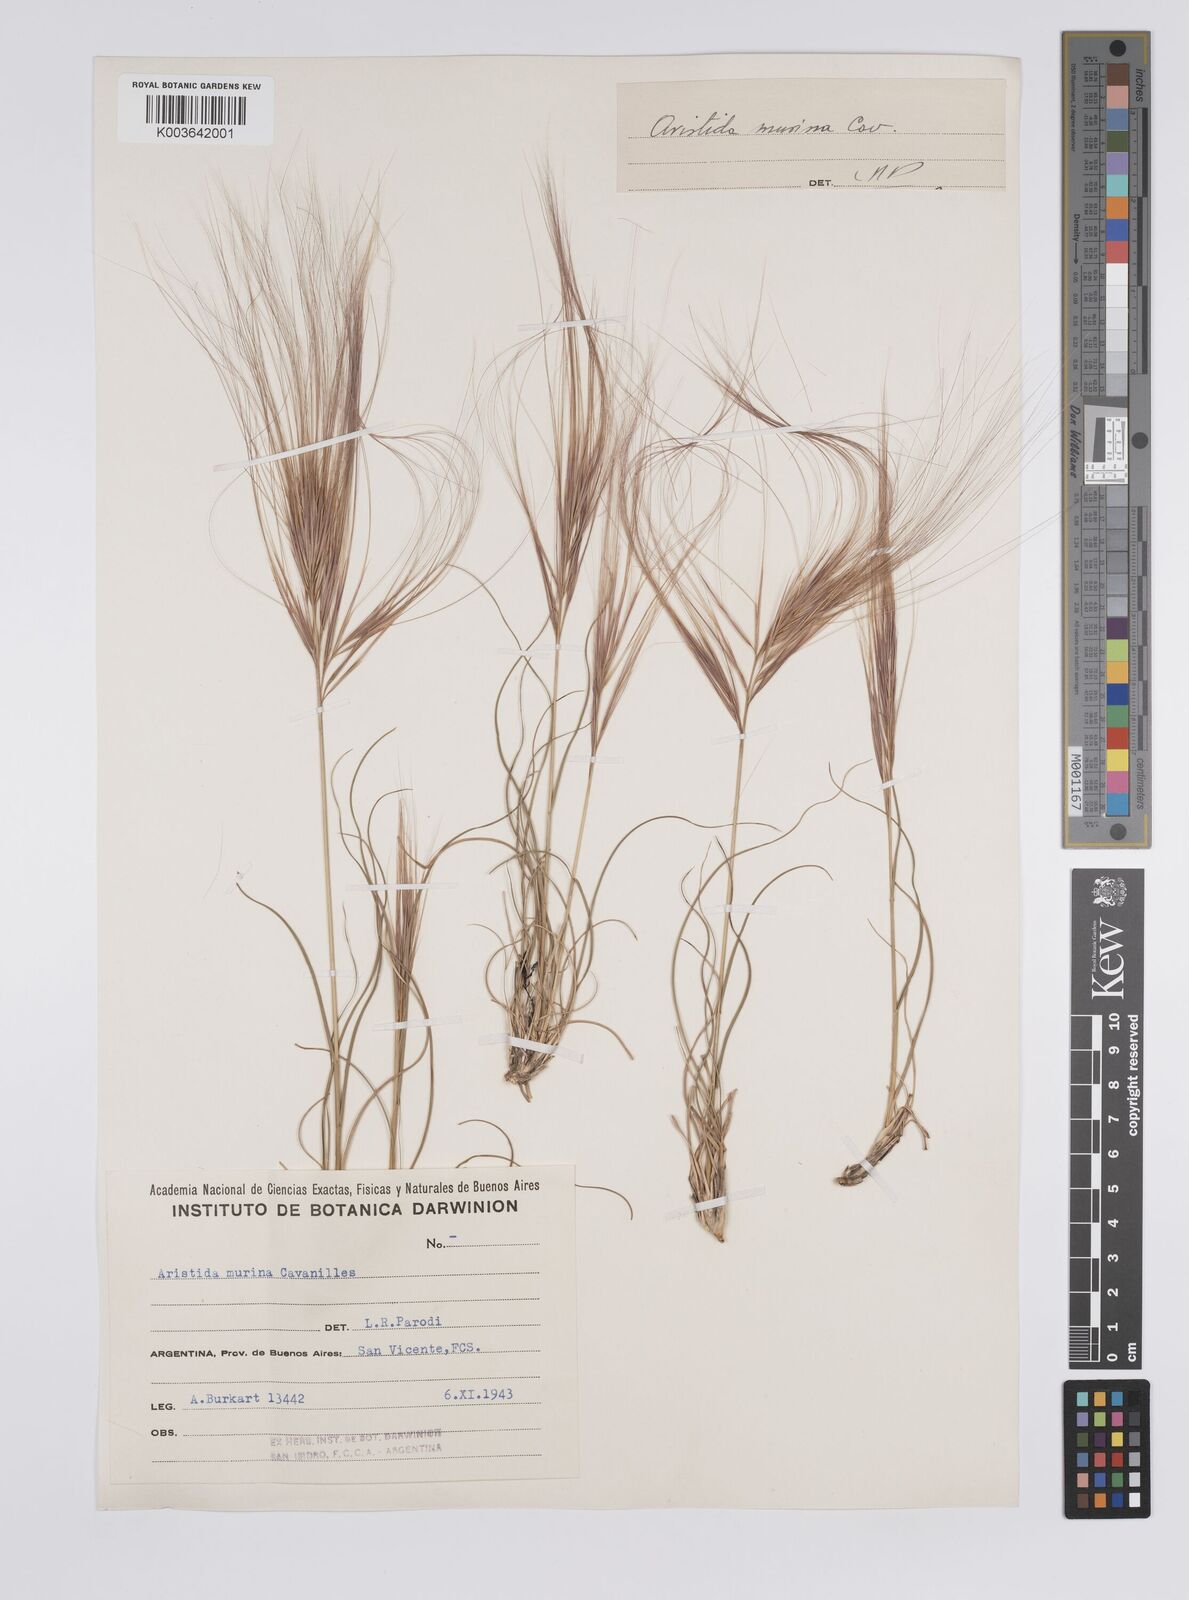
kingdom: Plantae
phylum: Tracheophyta
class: Liliopsida
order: Poales
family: Poaceae
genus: Aristida
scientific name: Aristida murina
